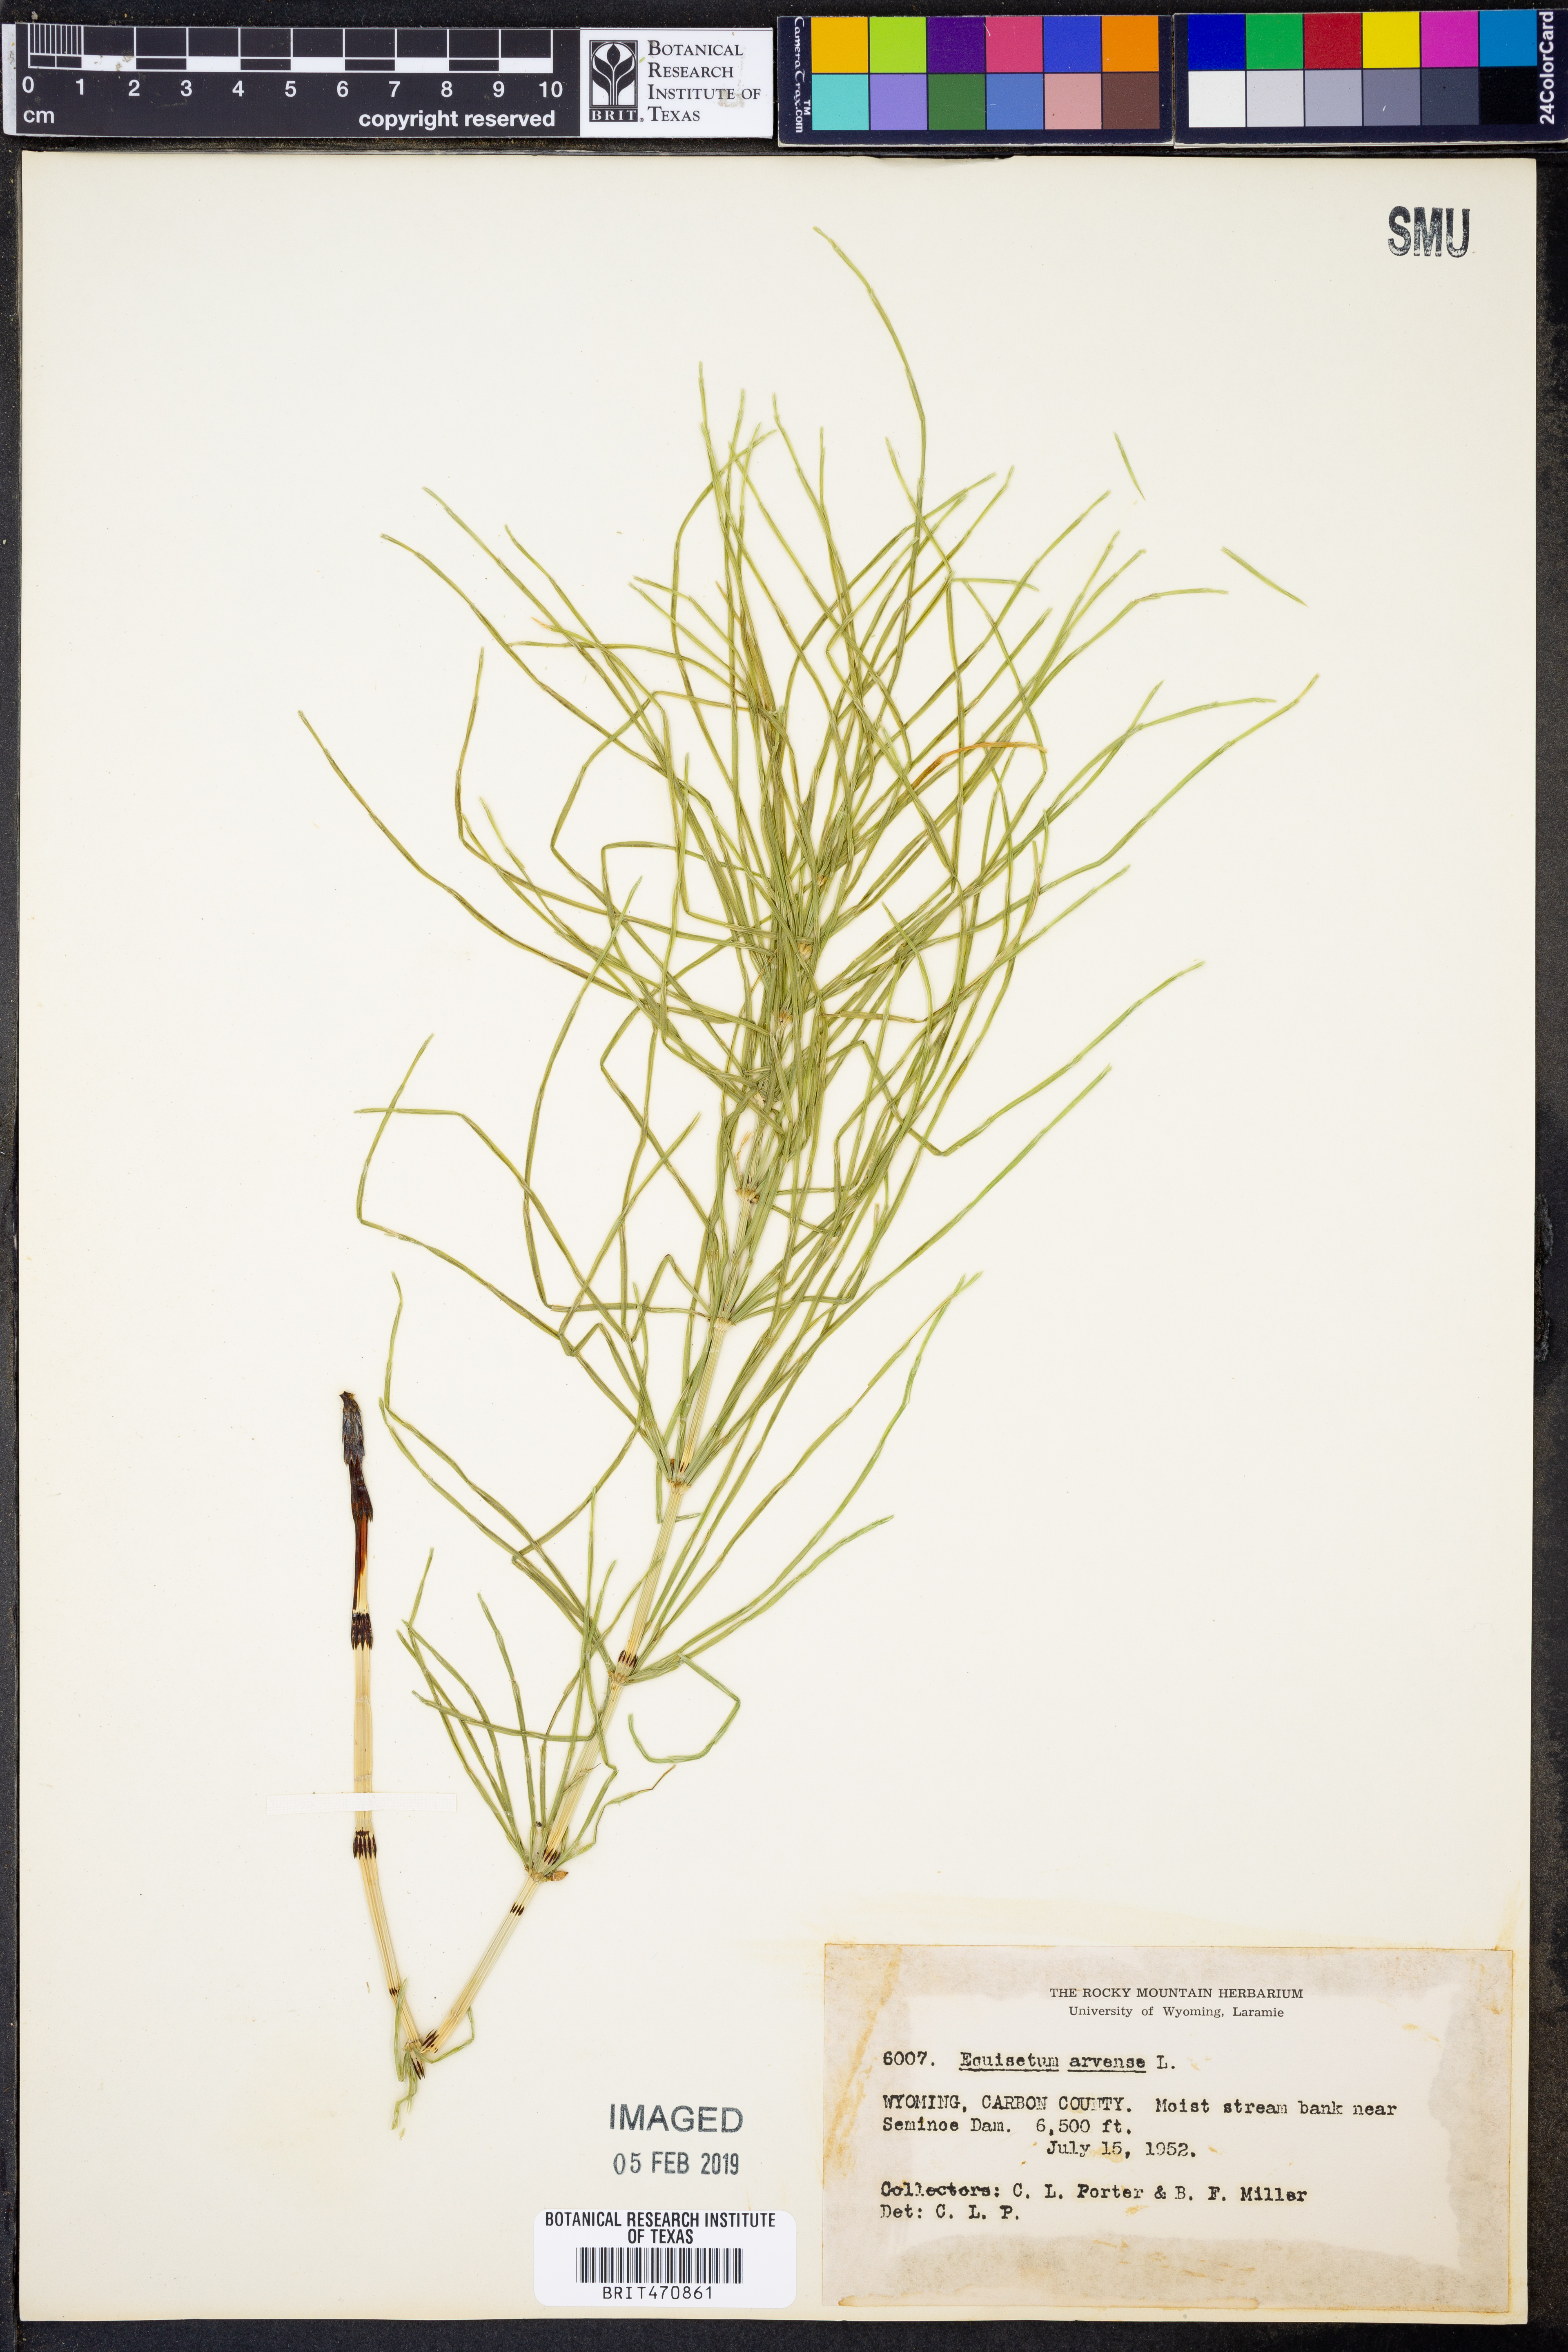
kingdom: Plantae
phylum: Tracheophyta
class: Polypodiopsida
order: Equisetales
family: Equisetaceae
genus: Equisetum
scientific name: Equisetum arvense
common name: Field horsetail
